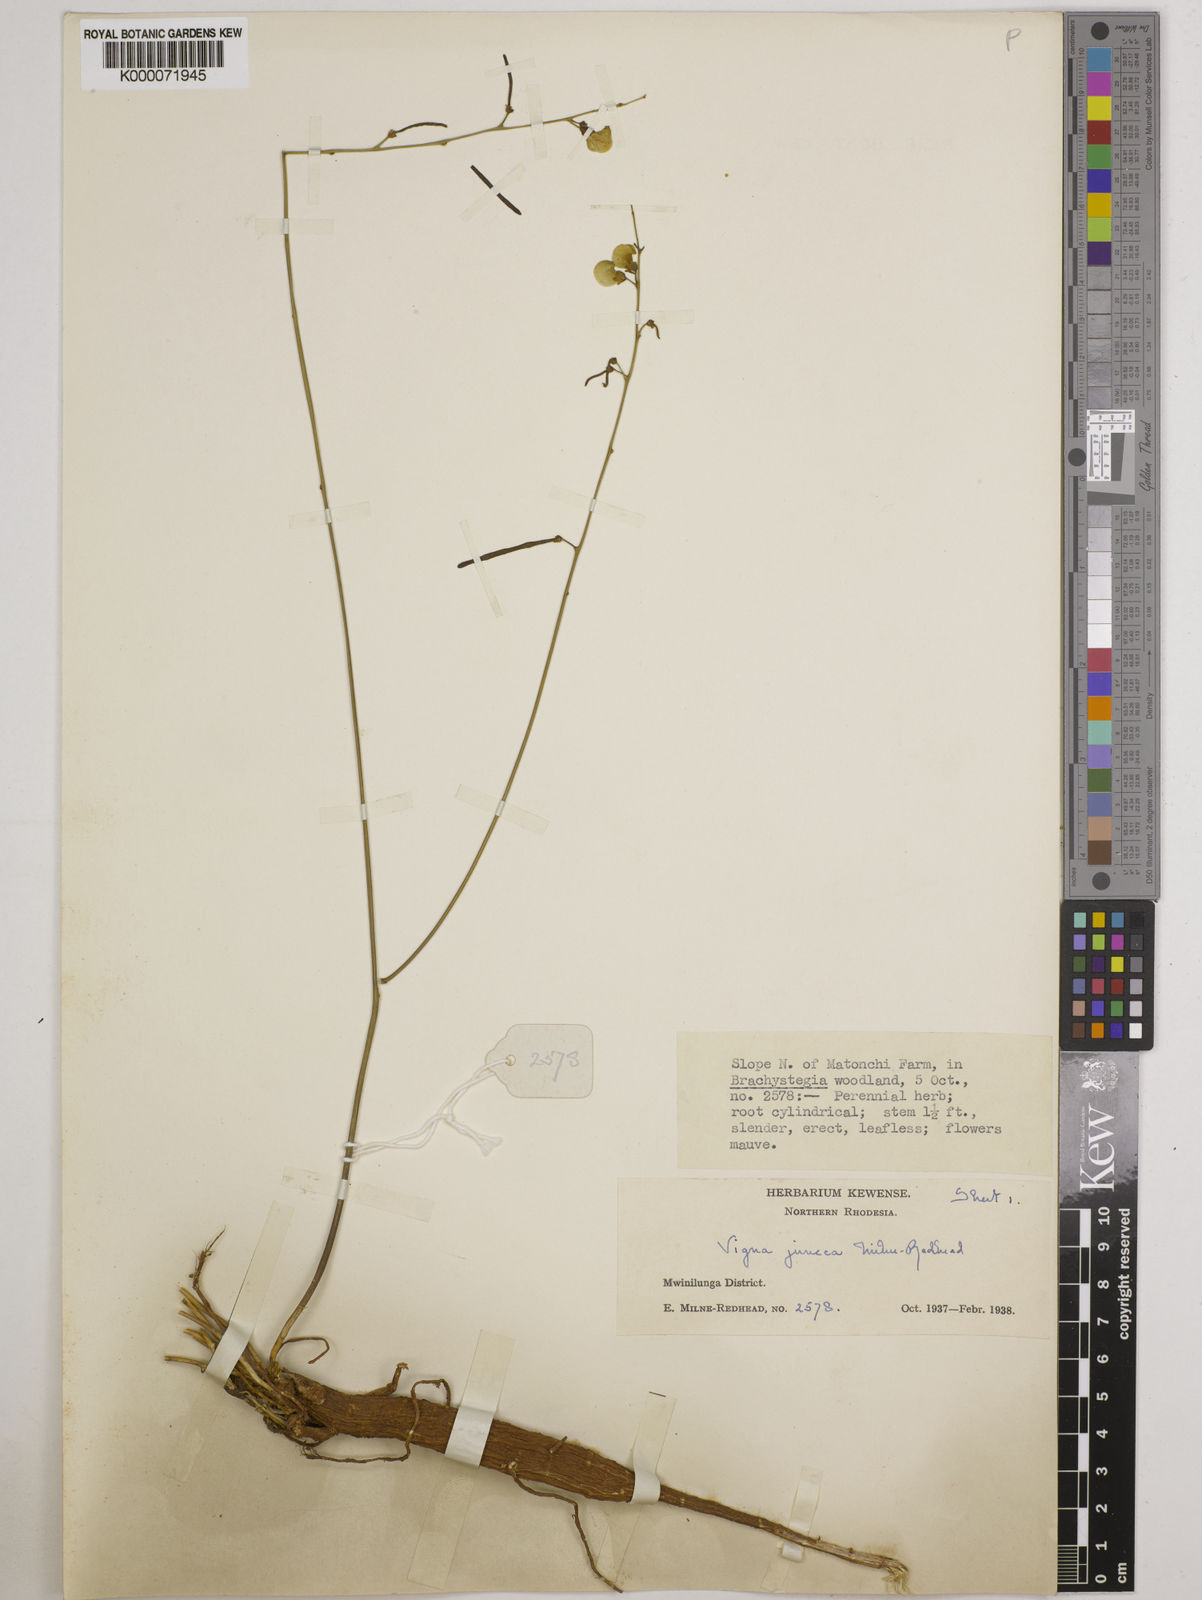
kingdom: Plantae
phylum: Tracheophyta
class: Magnoliopsida
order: Fabales
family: Fabaceae
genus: Vigna
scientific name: Vigna juncea
